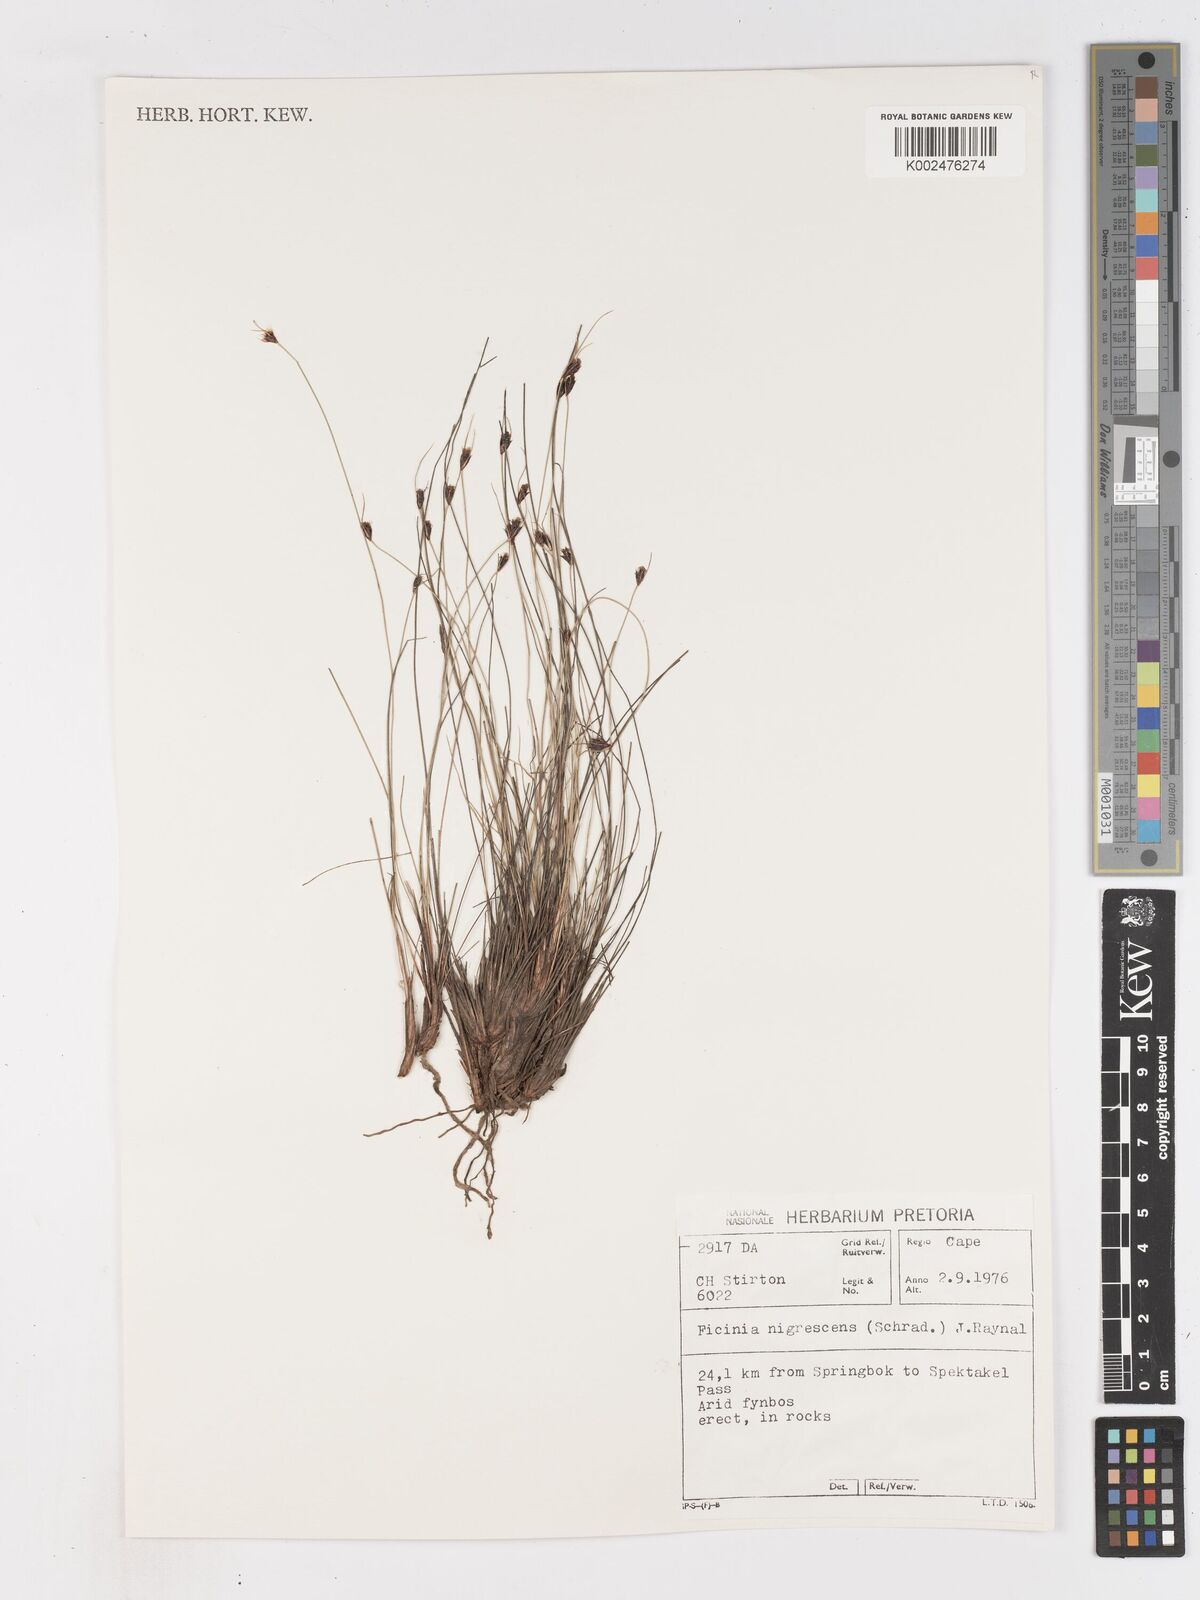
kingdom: Plantae
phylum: Tracheophyta
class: Liliopsida
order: Poales
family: Cyperaceae
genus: Ficinia
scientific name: Ficinia nigrescens
